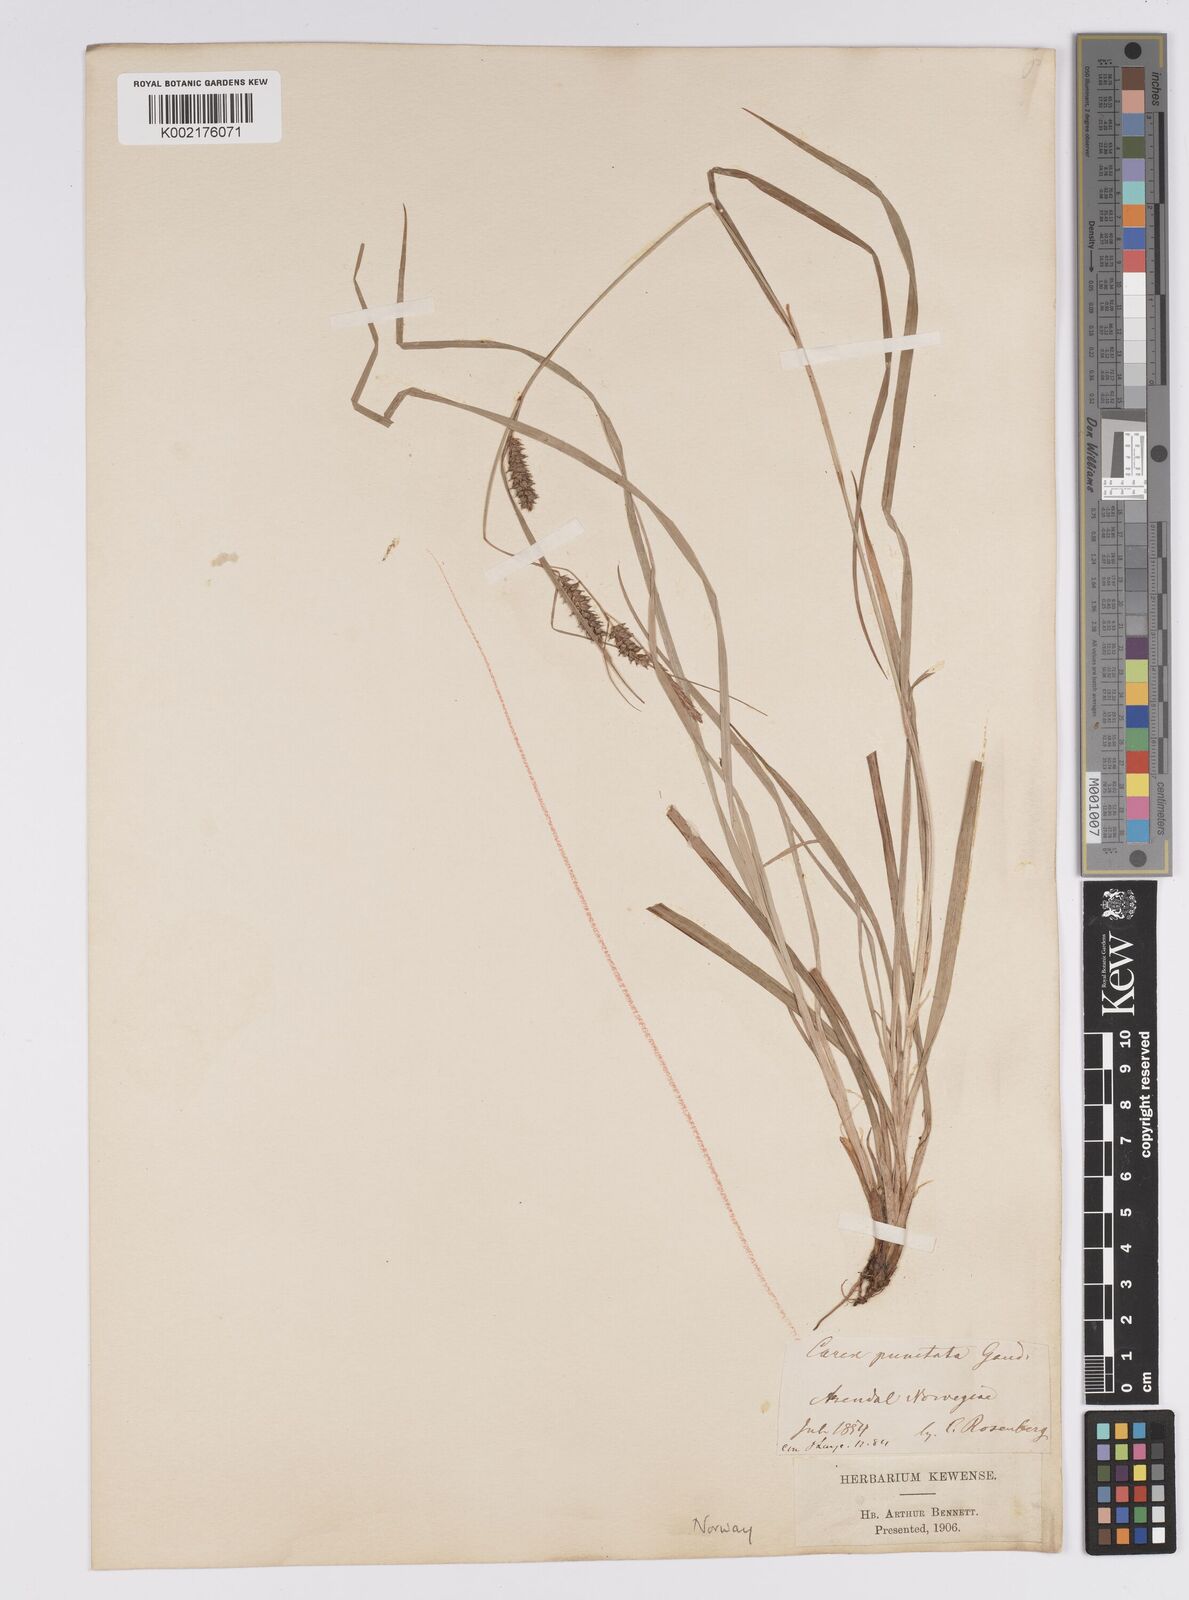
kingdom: Plantae
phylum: Tracheophyta
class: Liliopsida
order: Poales
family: Cyperaceae
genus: Carex
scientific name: Carex punctata
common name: Dotted sedge
